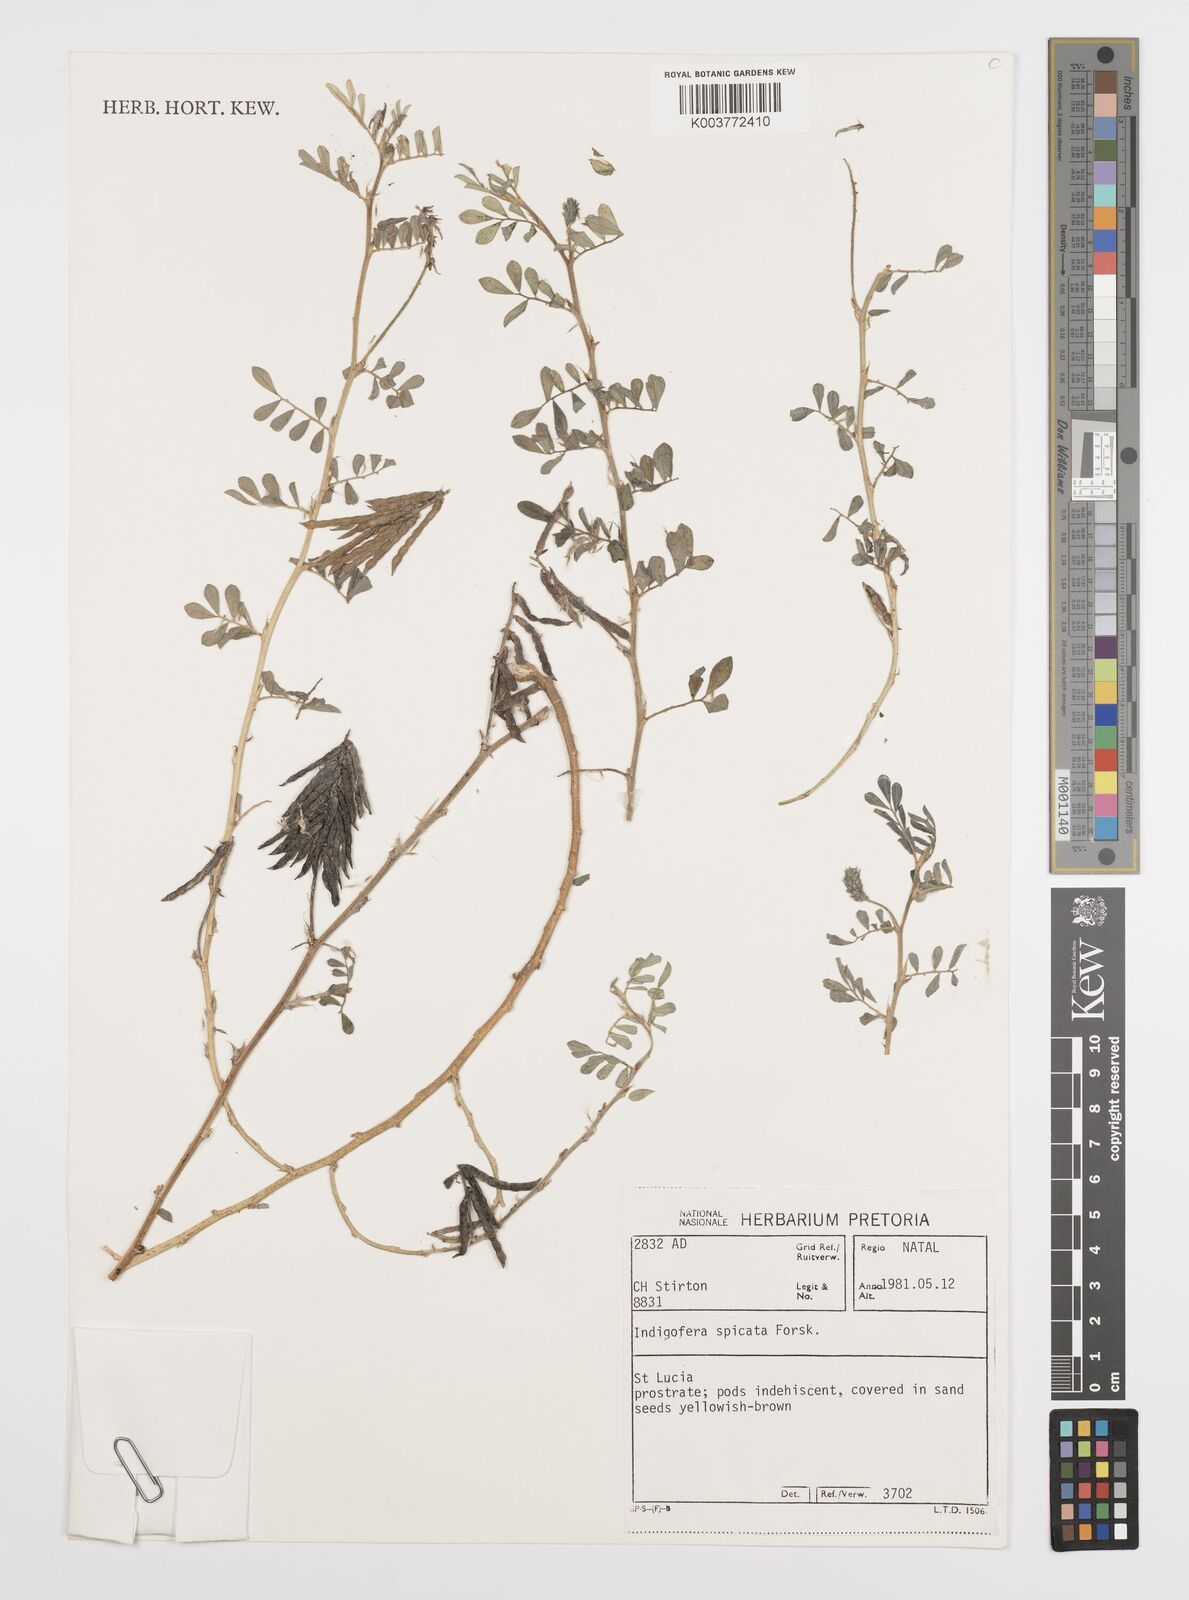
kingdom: Plantae
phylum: Tracheophyta
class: Magnoliopsida
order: Fabales
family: Fabaceae
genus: Indigofera
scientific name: Indigofera spicata
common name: Creeping indigo
